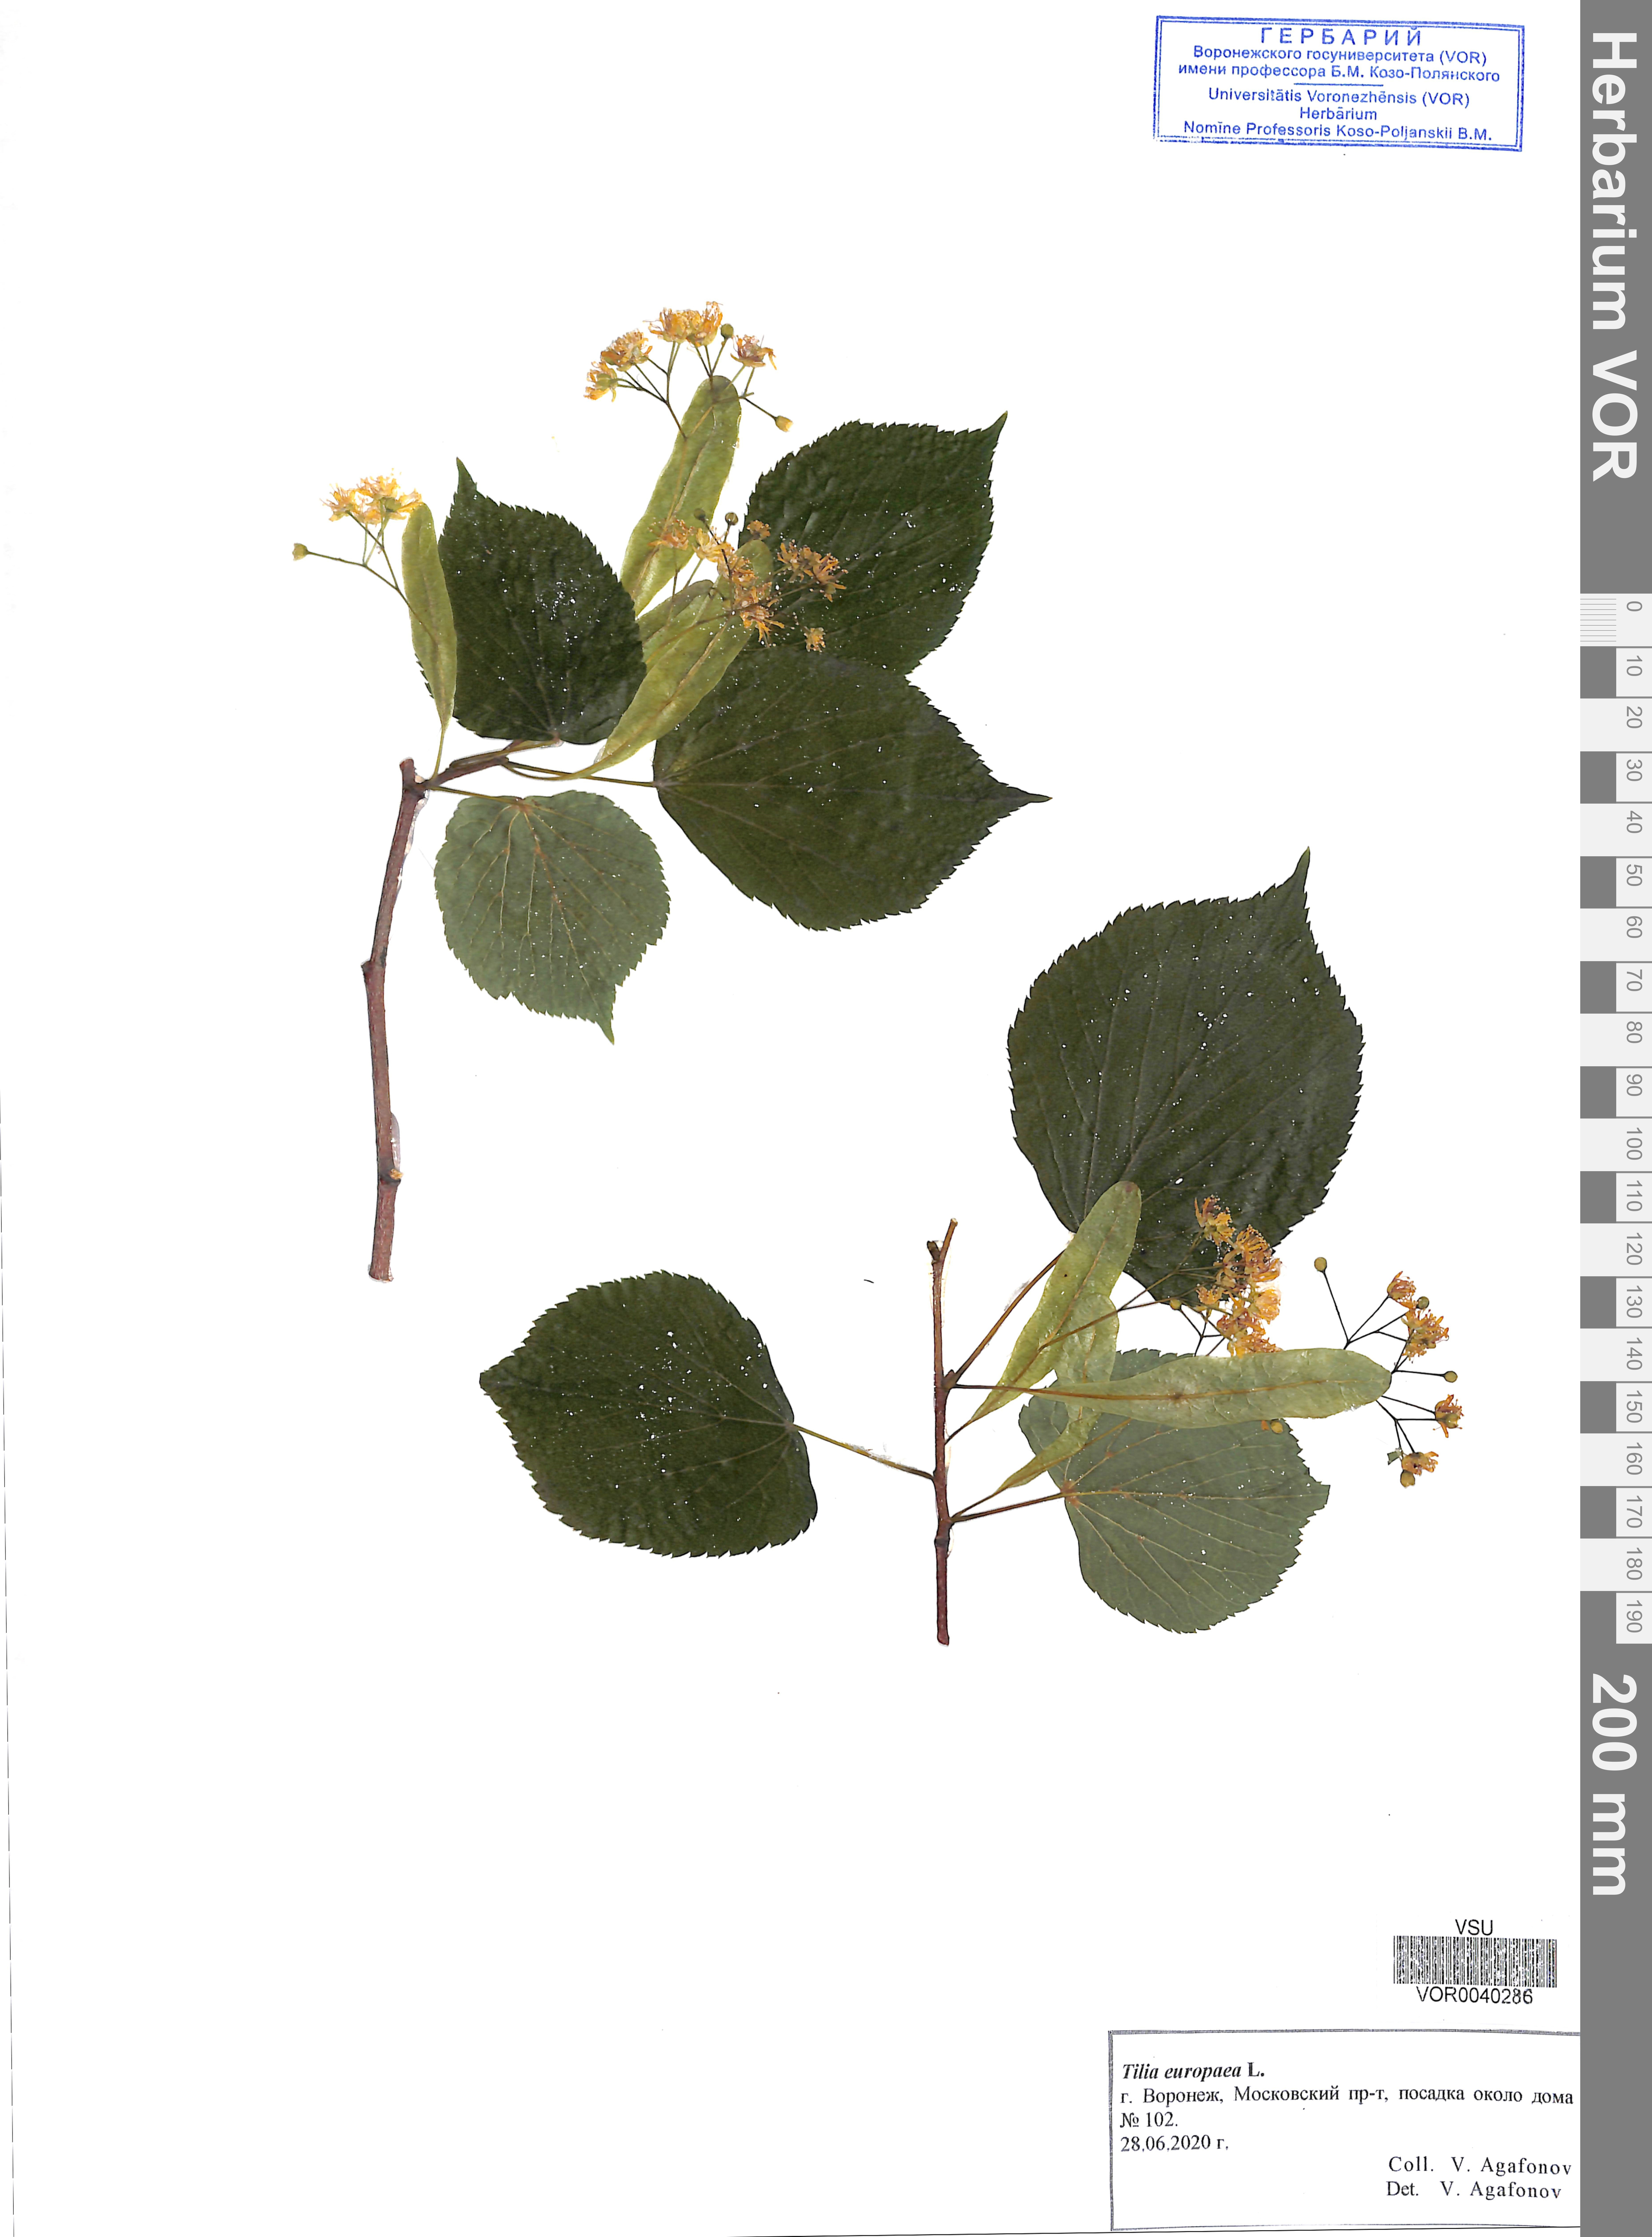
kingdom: Plantae
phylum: Tracheophyta
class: Magnoliopsida
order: Malvales
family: Malvaceae
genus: Tilia
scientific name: Tilia europaea
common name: European linden
